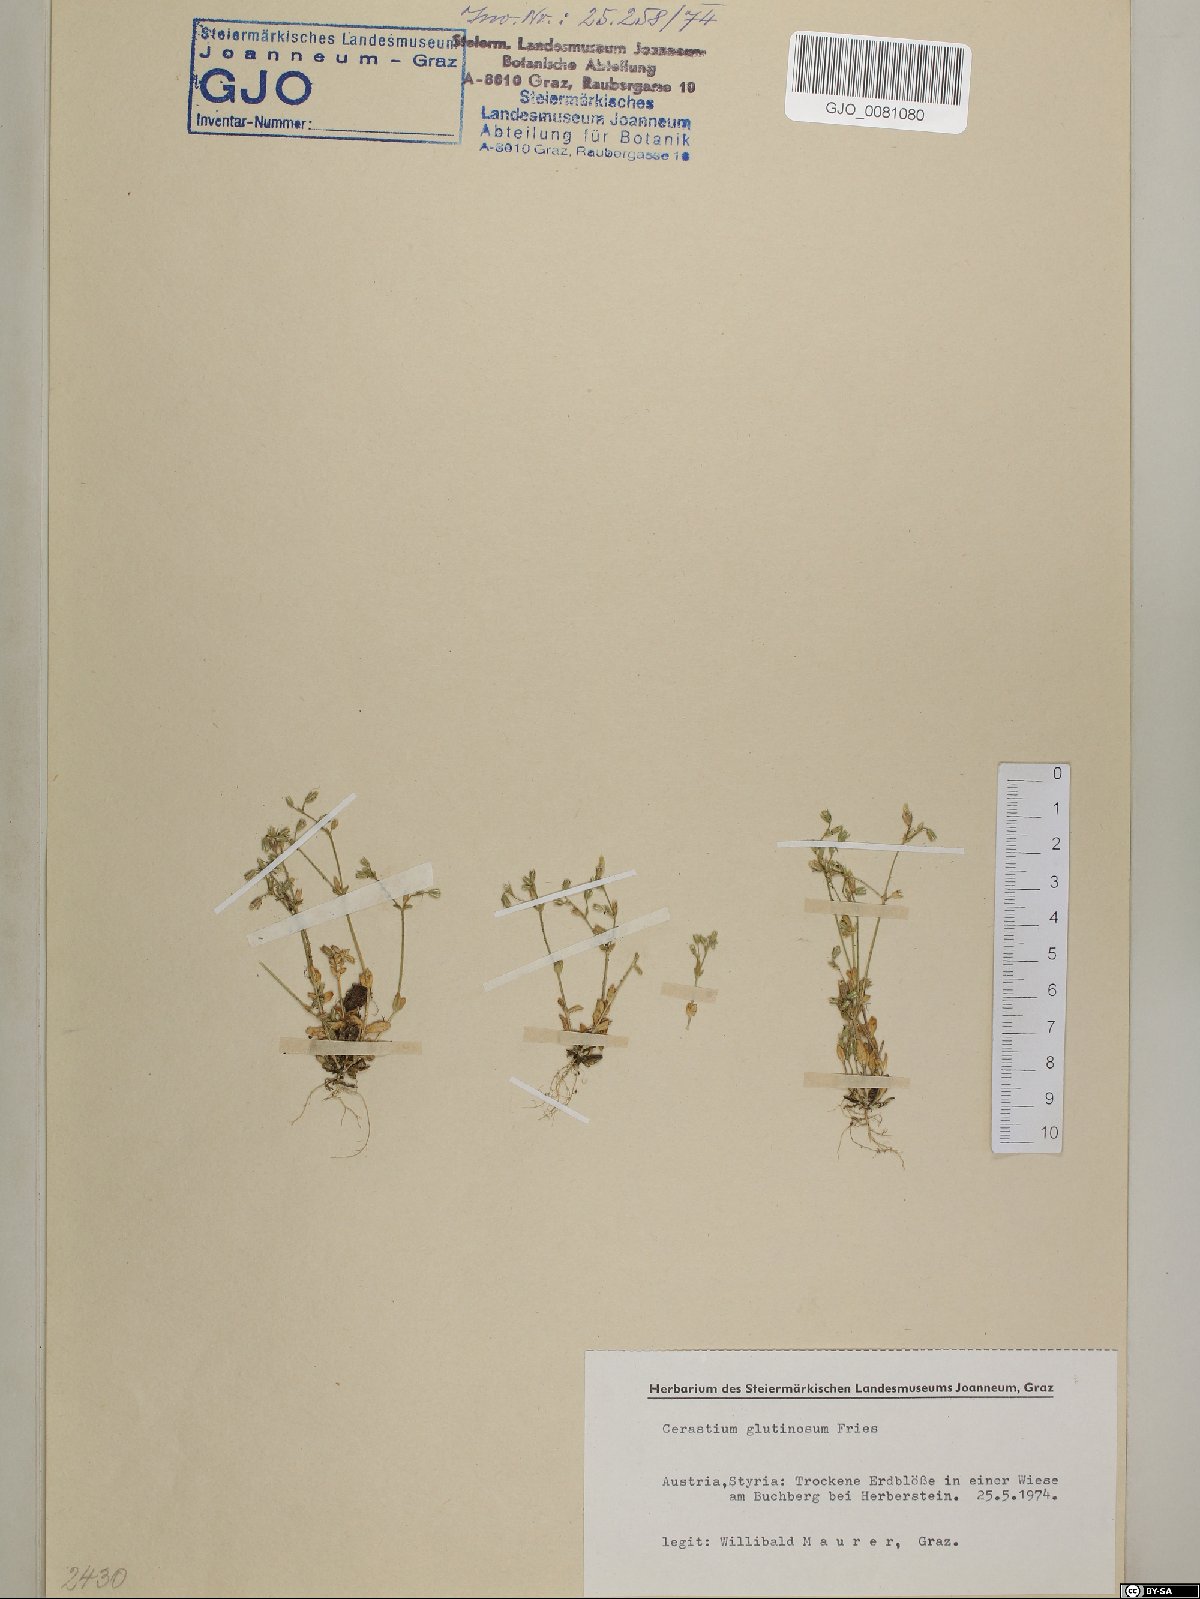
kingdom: Plantae
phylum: Tracheophyta
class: Magnoliopsida
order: Caryophyllales
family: Caryophyllaceae
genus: Cerastium
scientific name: Cerastium glutinosum
